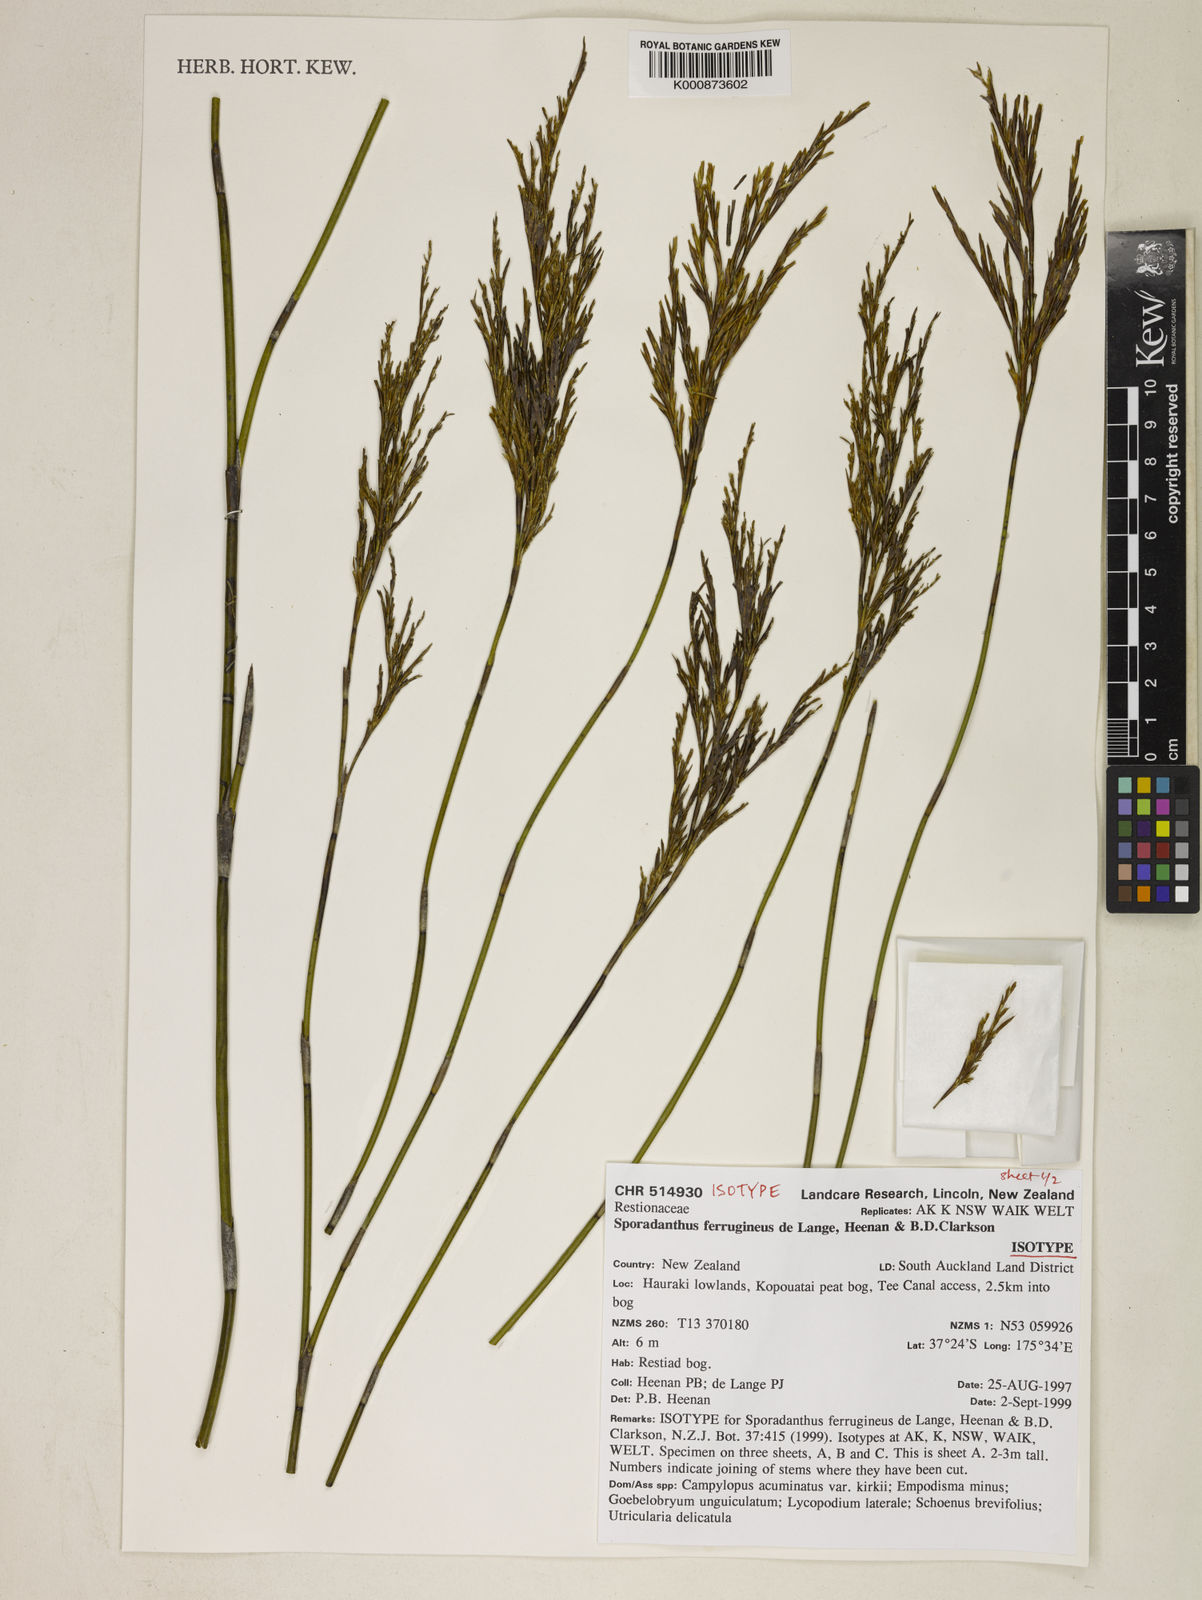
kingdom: Plantae
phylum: Tracheophyta
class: Liliopsida
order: Poales
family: Restionaceae
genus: Sporadanthus
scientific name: Sporadanthus ferrugineus
